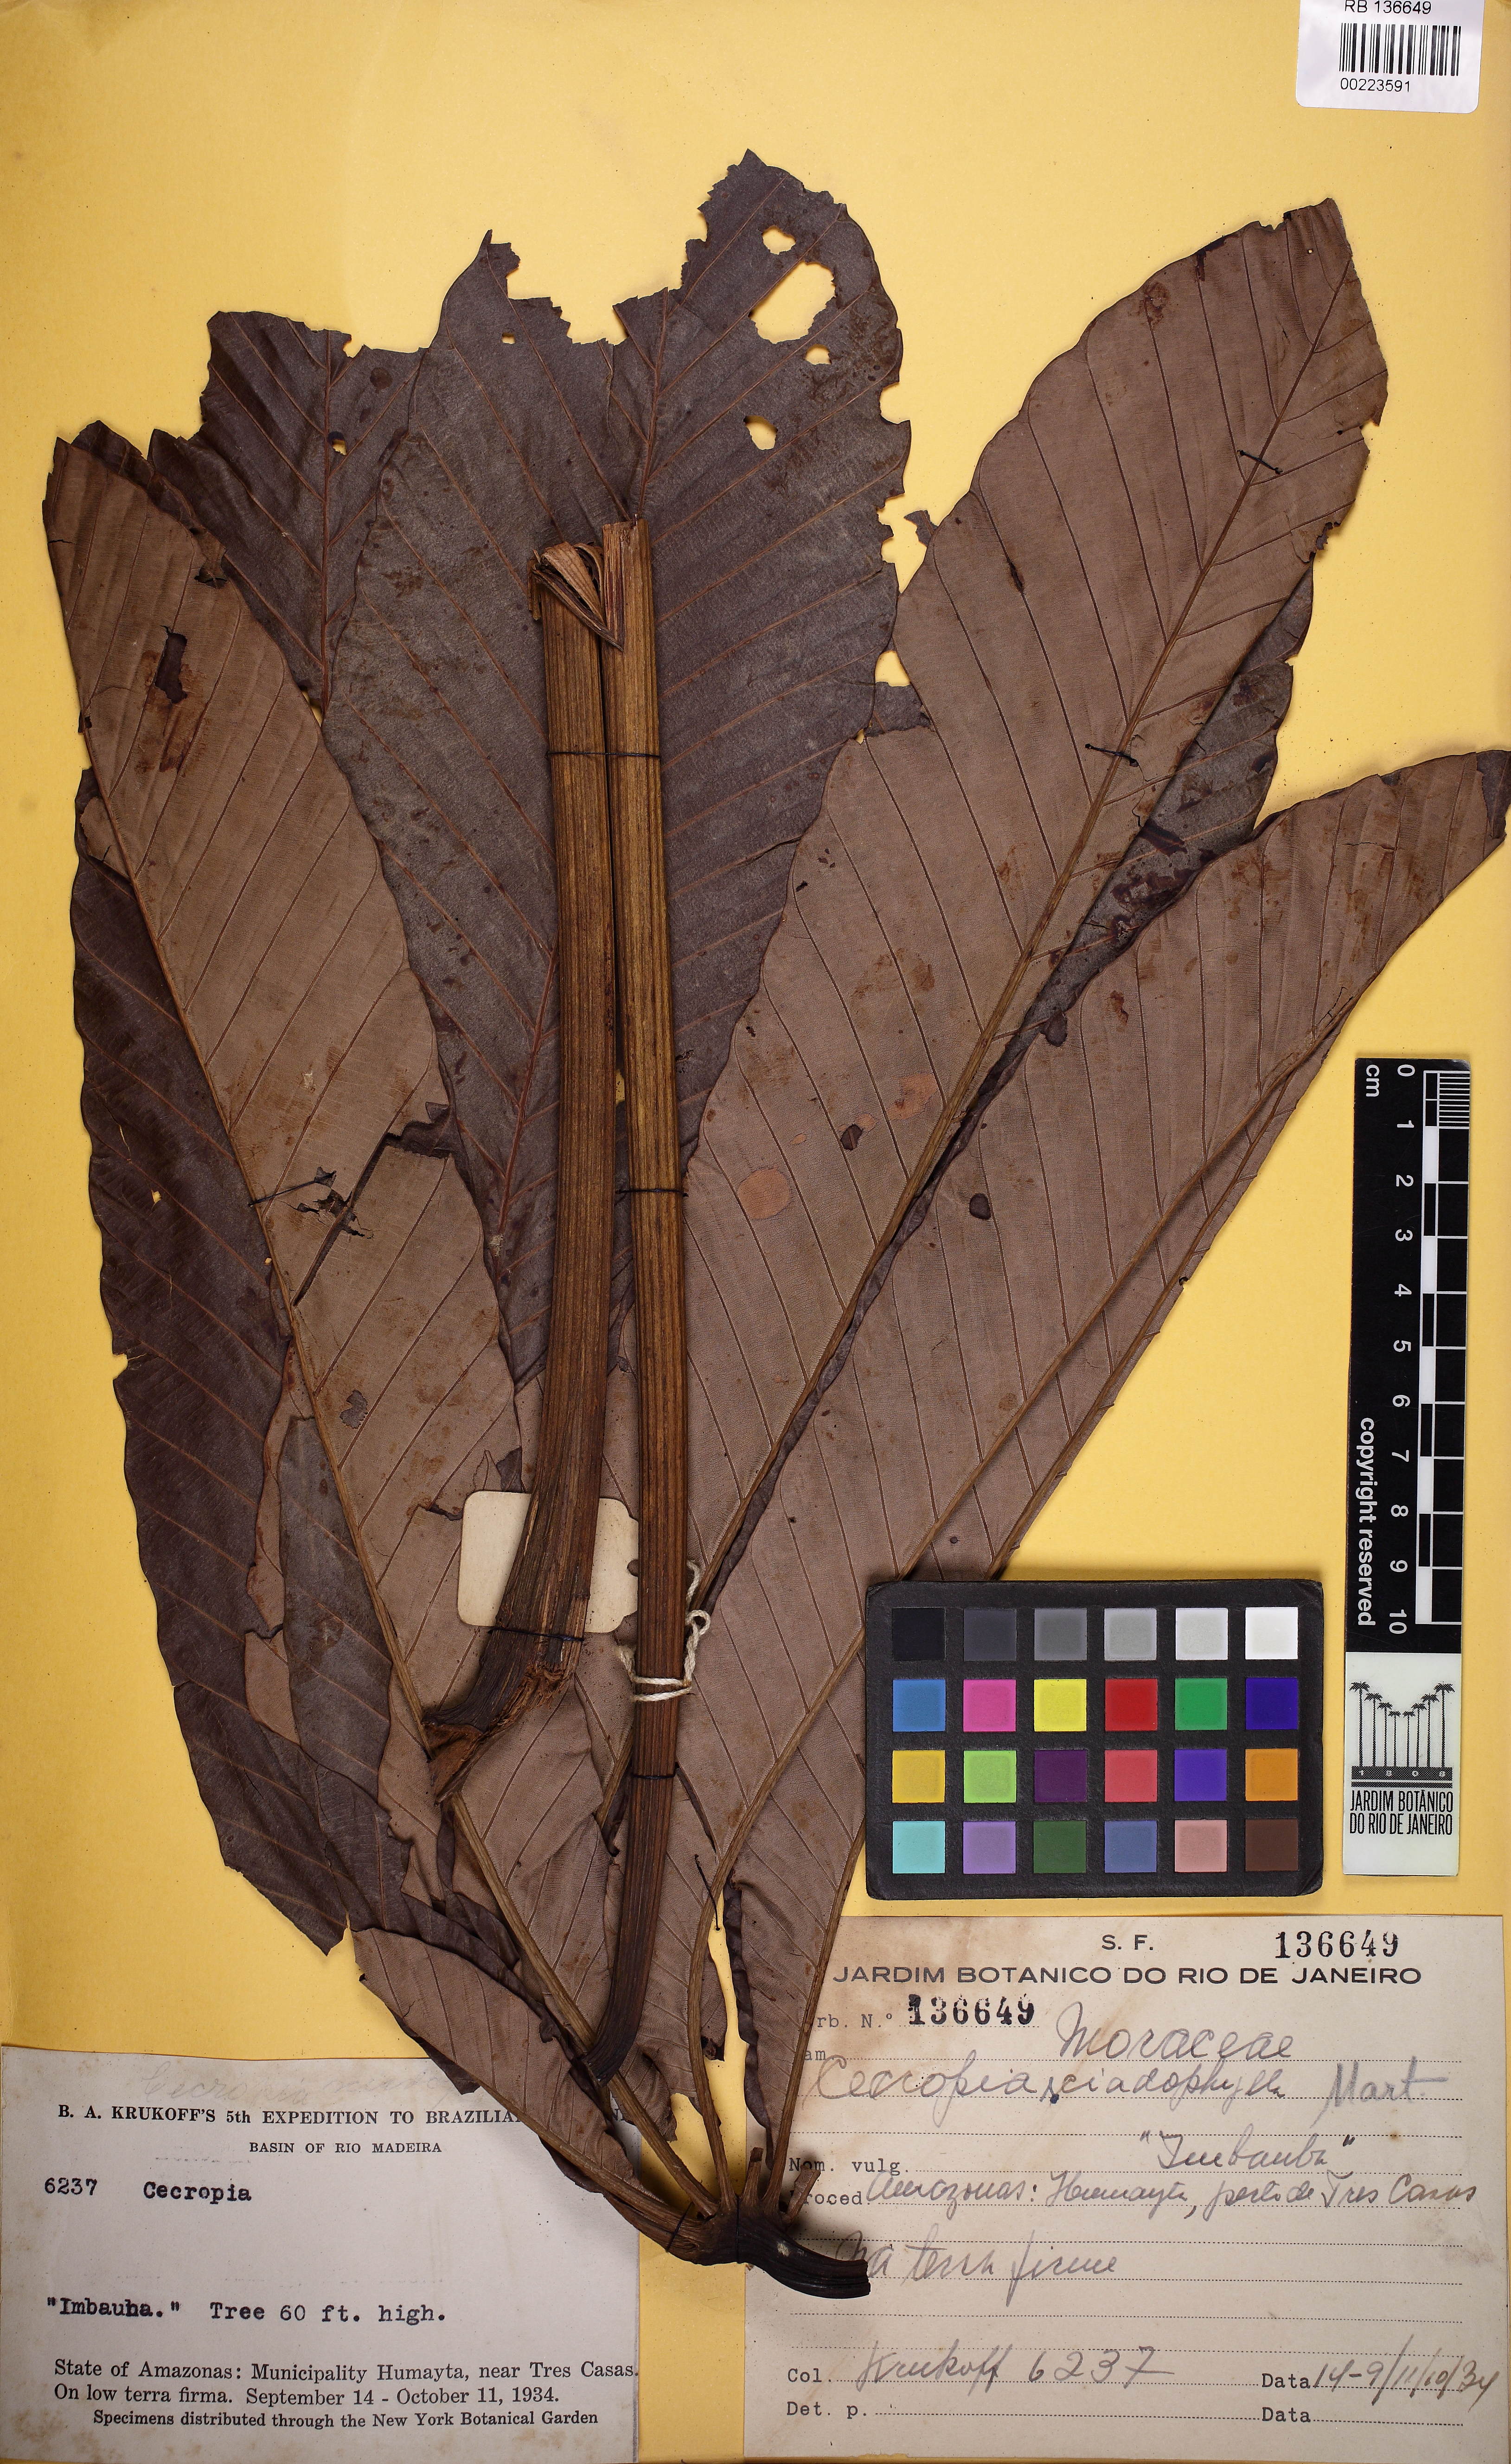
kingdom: Plantae
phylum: Tracheophyta
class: Magnoliopsida
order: Rosales
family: Urticaceae
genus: Cecropia
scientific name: Cecropia sciadophylla
